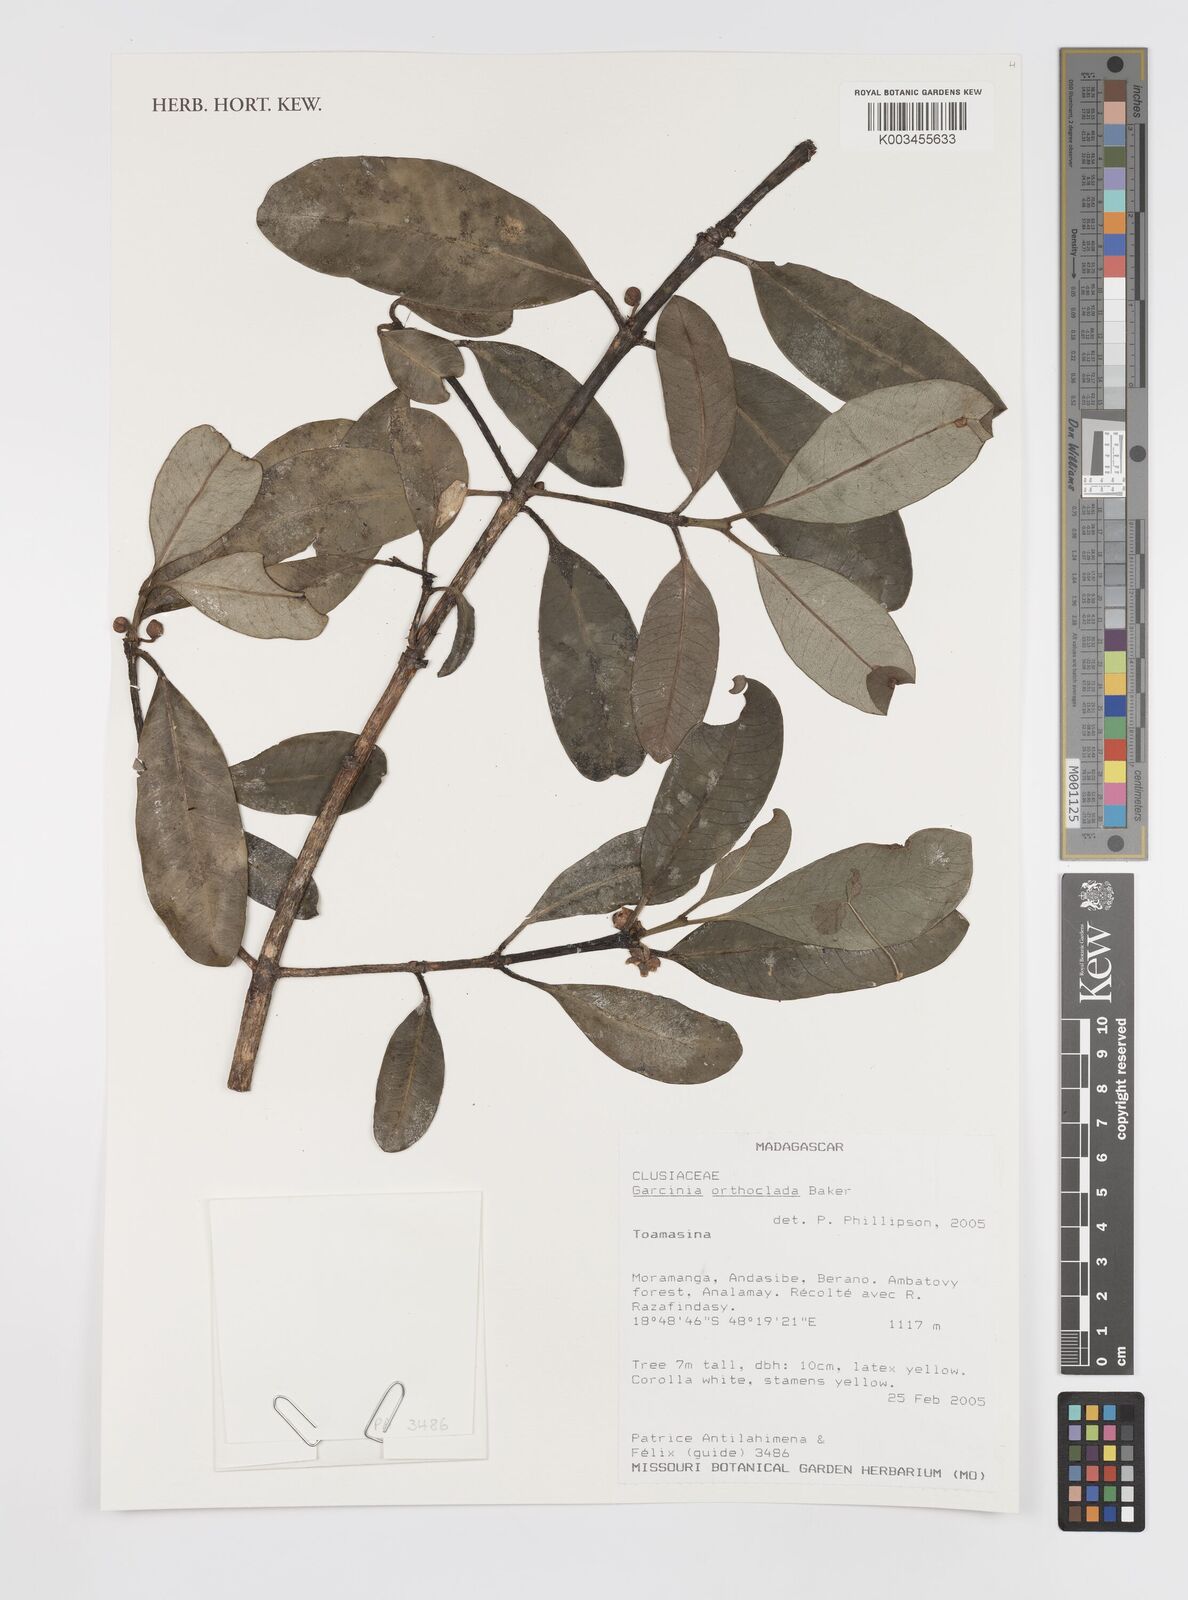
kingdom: Plantae
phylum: Tracheophyta
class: Magnoliopsida
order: Malpighiales
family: Clusiaceae
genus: Garcinia
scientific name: Garcinia orthoclada
